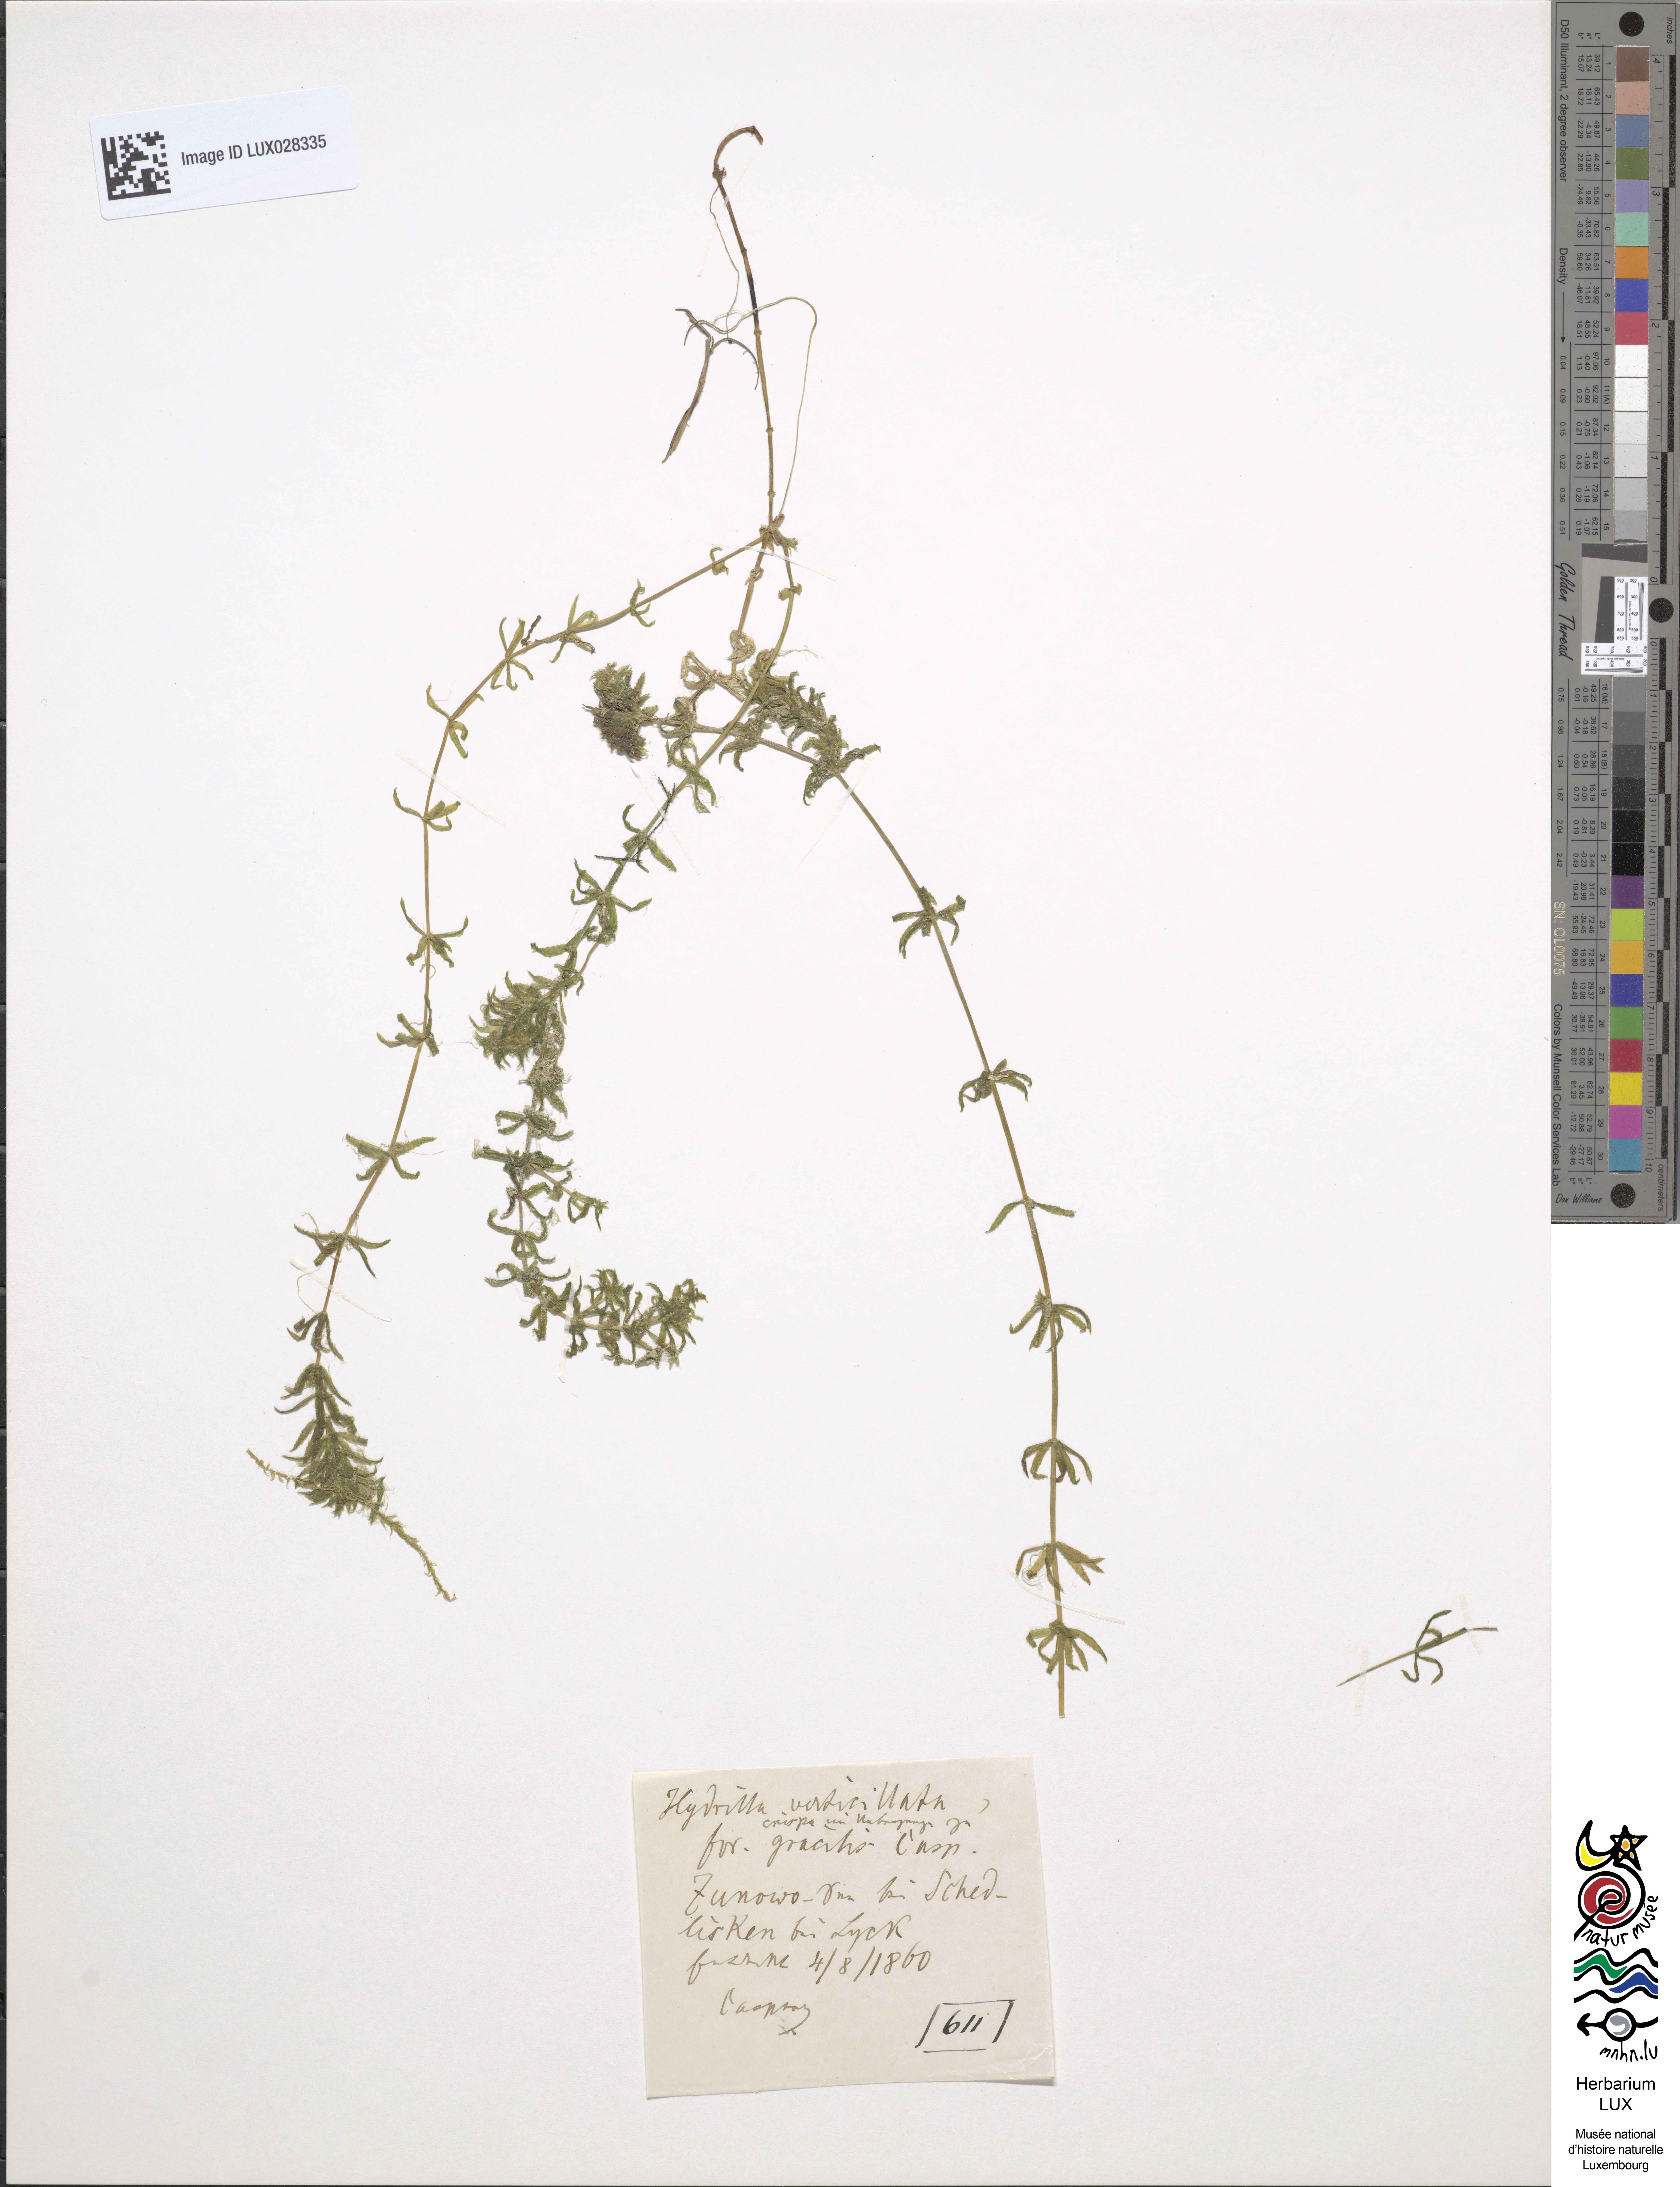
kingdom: Plantae
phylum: Tracheophyta
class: Liliopsida
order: Alismatales
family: Hydrocharitaceae
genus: Hydrilla
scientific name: Hydrilla verticillata
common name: Florida-elodea
